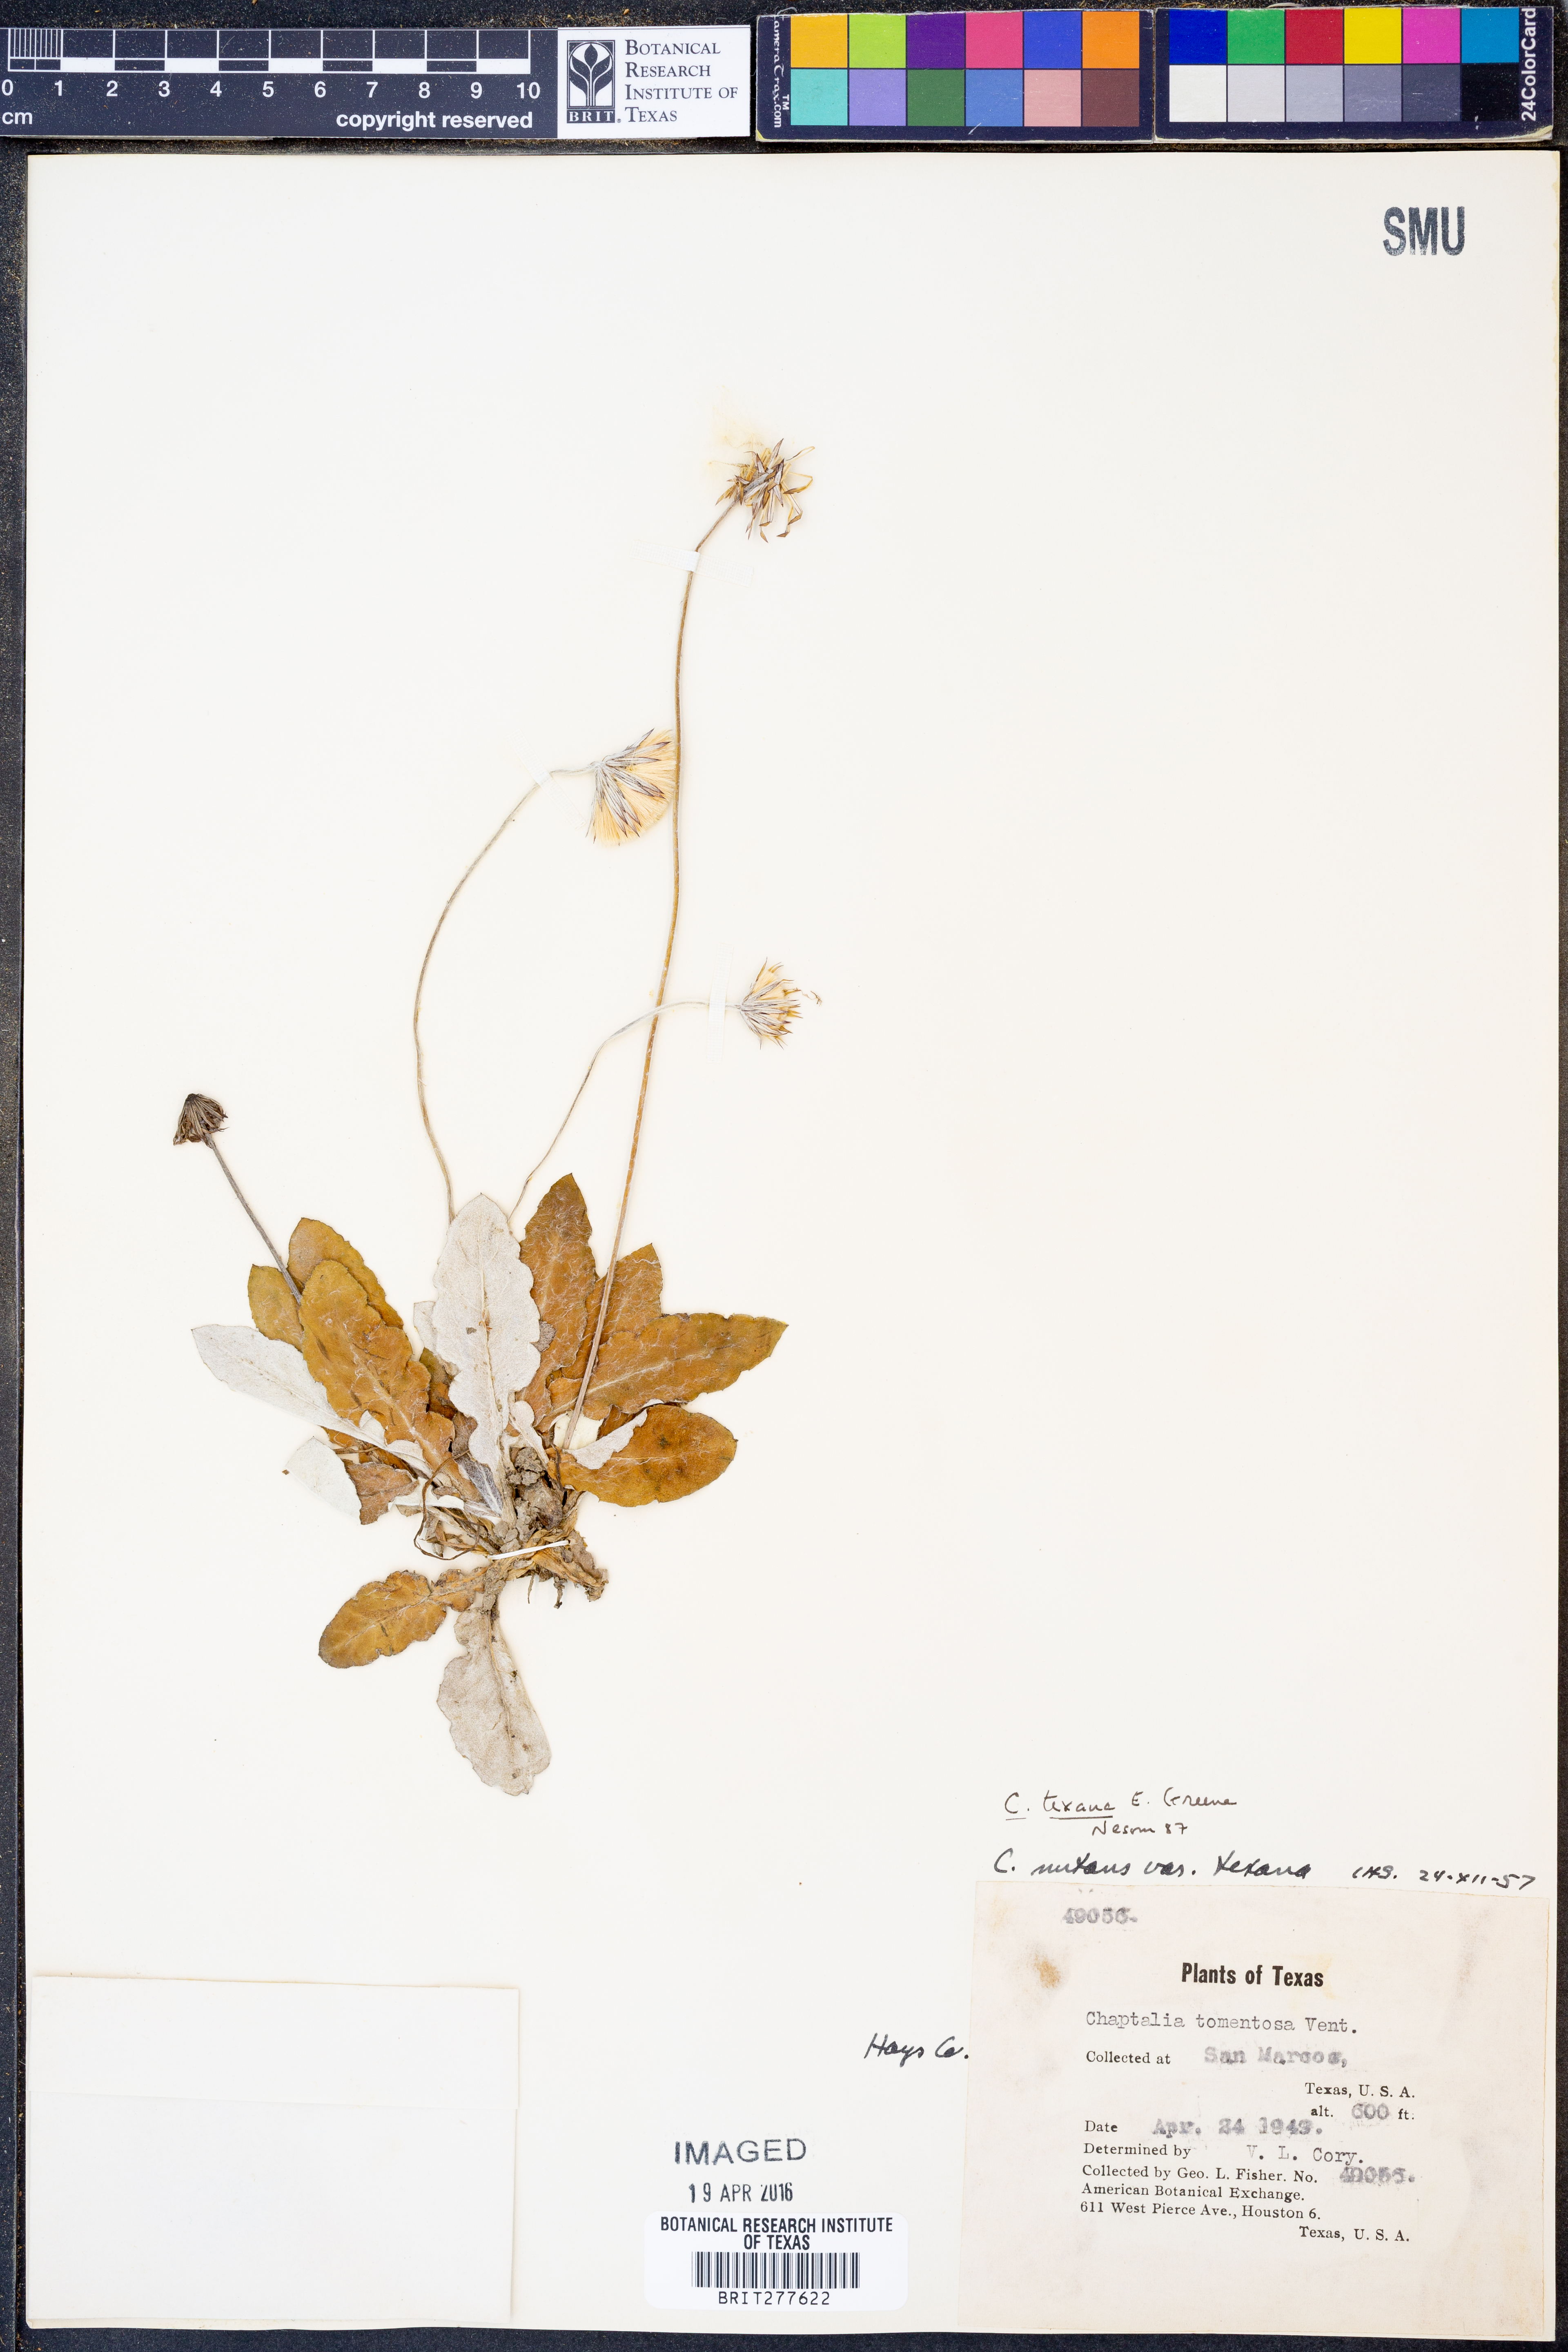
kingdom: Plantae
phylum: Tracheophyta
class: Magnoliopsida
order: Asterales
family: Asteraceae
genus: Chaptalia
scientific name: Chaptalia texana
